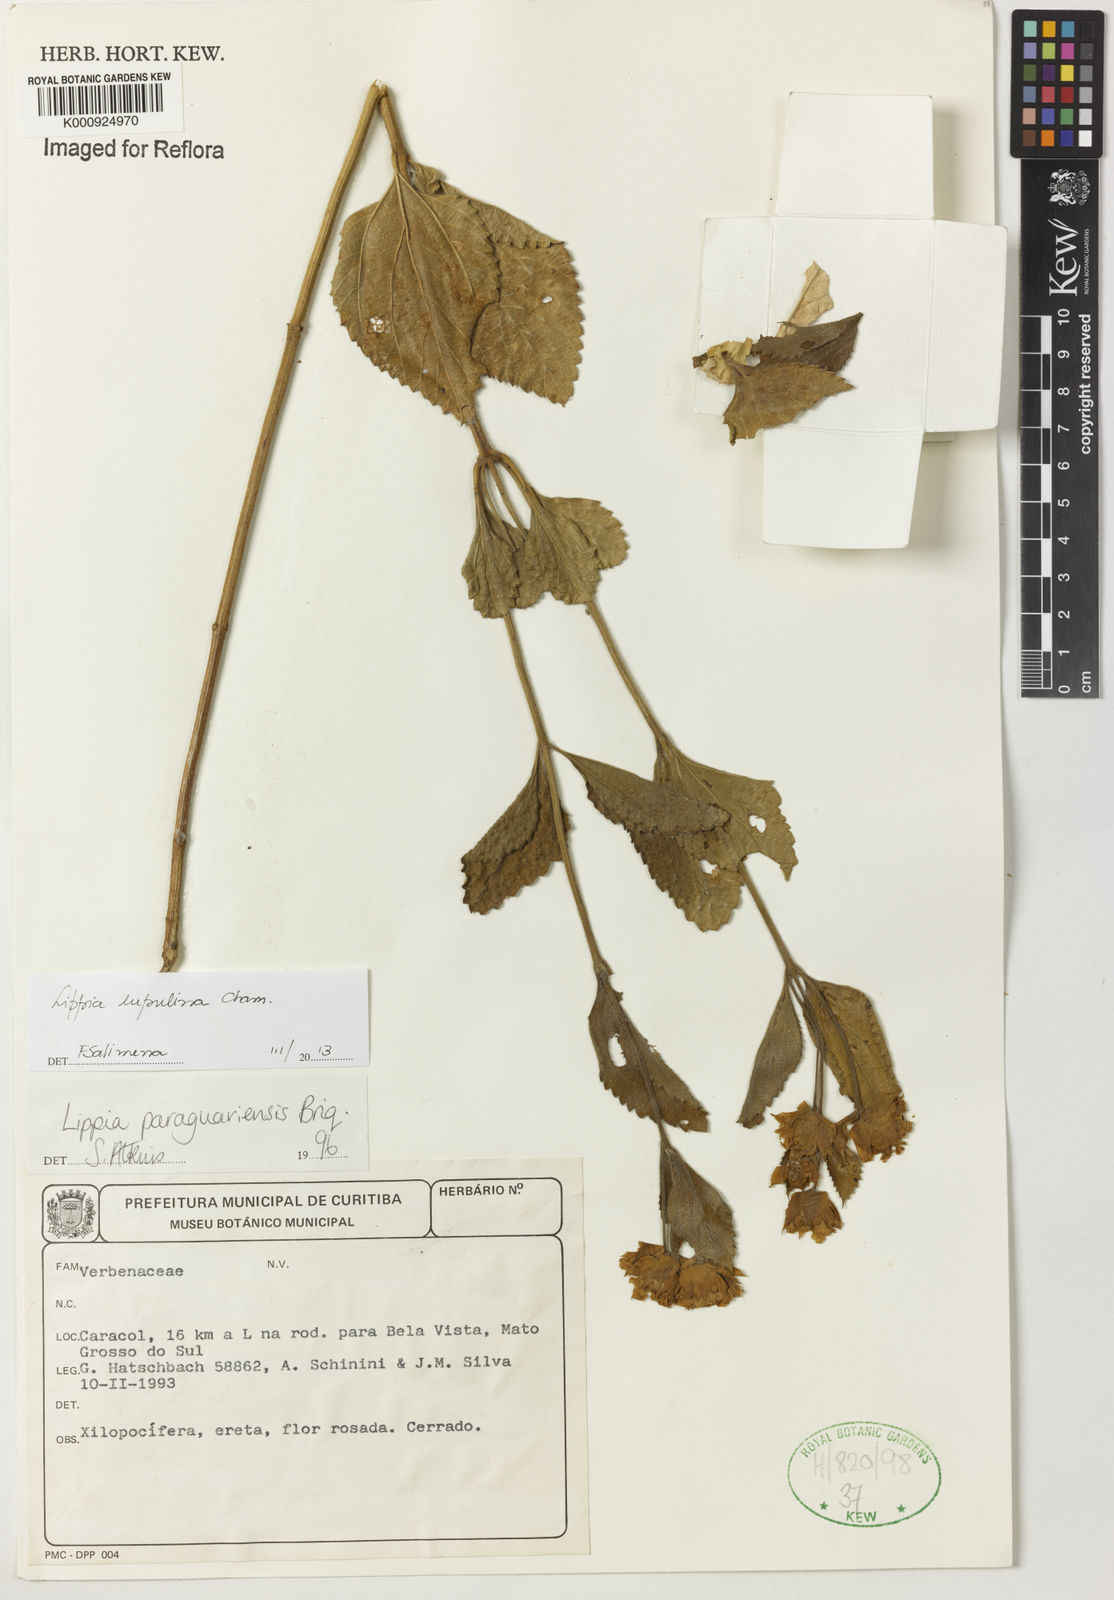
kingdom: Plantae
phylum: Tracheophyta
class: Magnoliopsida
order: Lamiales
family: Verbenaceae
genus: Lippia
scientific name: Lippia lupulina
